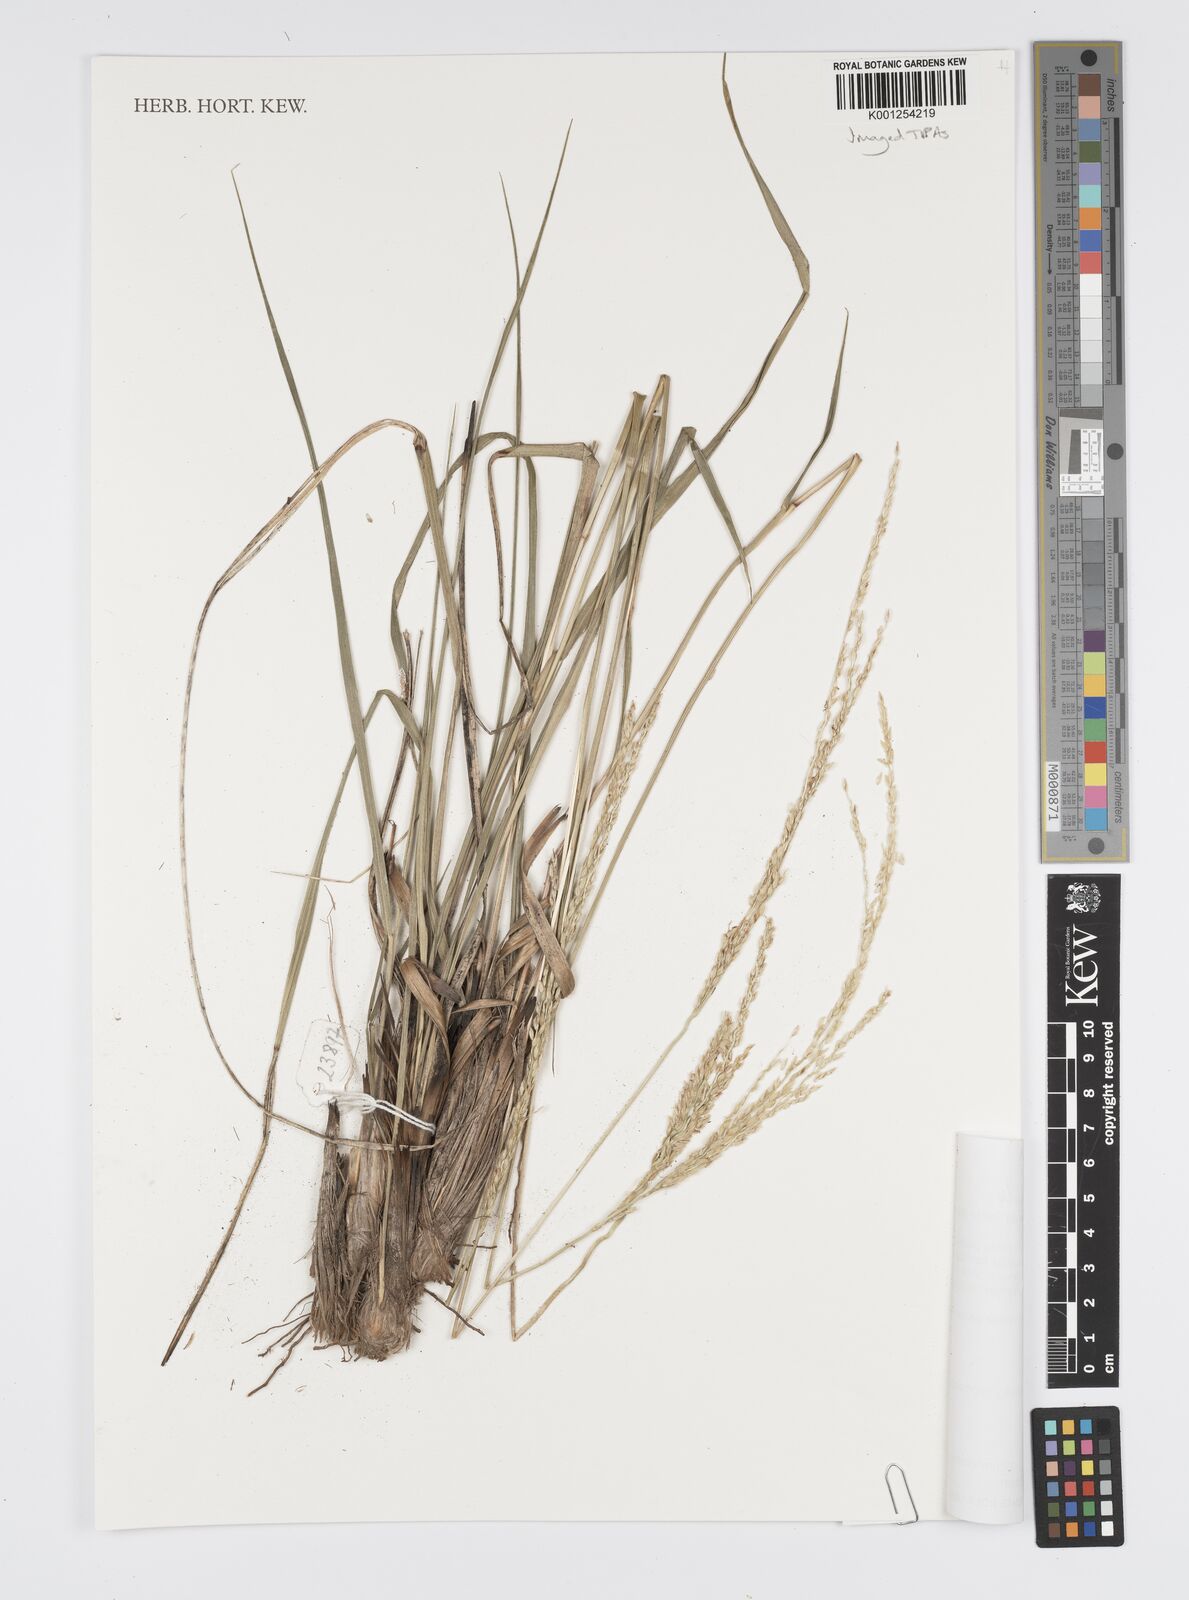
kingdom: Plantae
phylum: Tracheophyta
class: Liliopsida
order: Poales
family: Poaceae
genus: Digitaria
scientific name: Digitaria dioica
